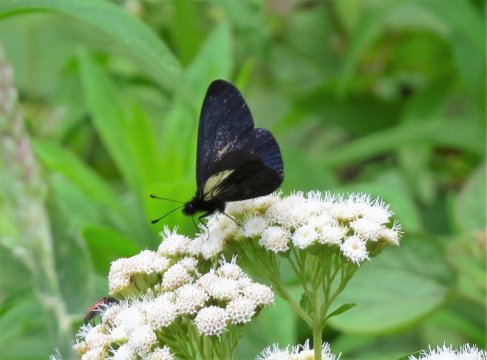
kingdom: Animalia
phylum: Arthropoda
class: Insecta
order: Lepidoptera
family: Nymphalidae
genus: Acraea
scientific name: Acraea Altinote ozomene
